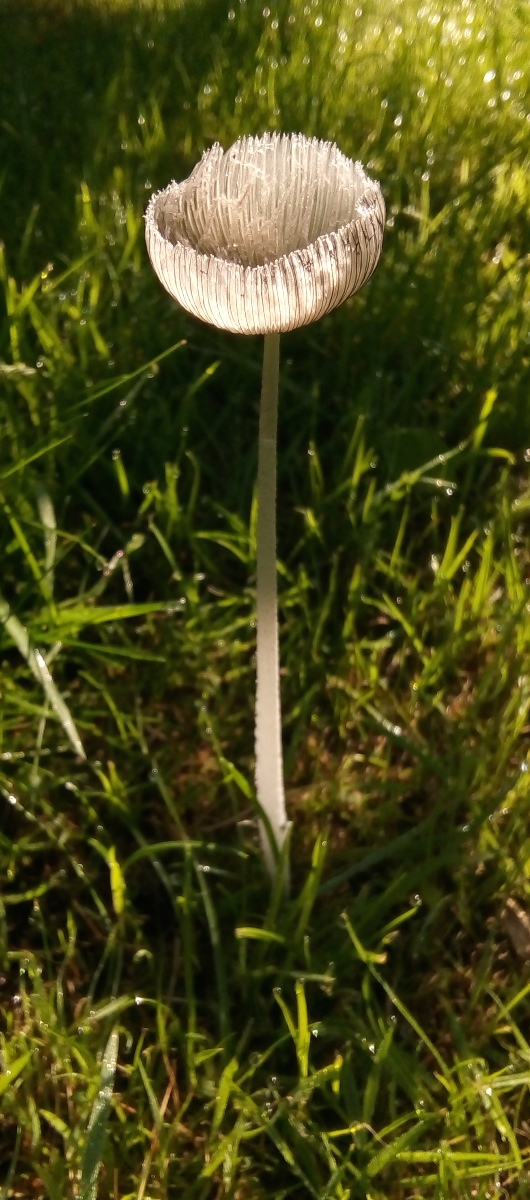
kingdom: Fungi
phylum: Basidiomycota
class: Agaricomycetes
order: Agaricales
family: Psathyrellaceae
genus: Coprinopsis
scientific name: Coprinopsis lagopus
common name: dunstokket blækhat
